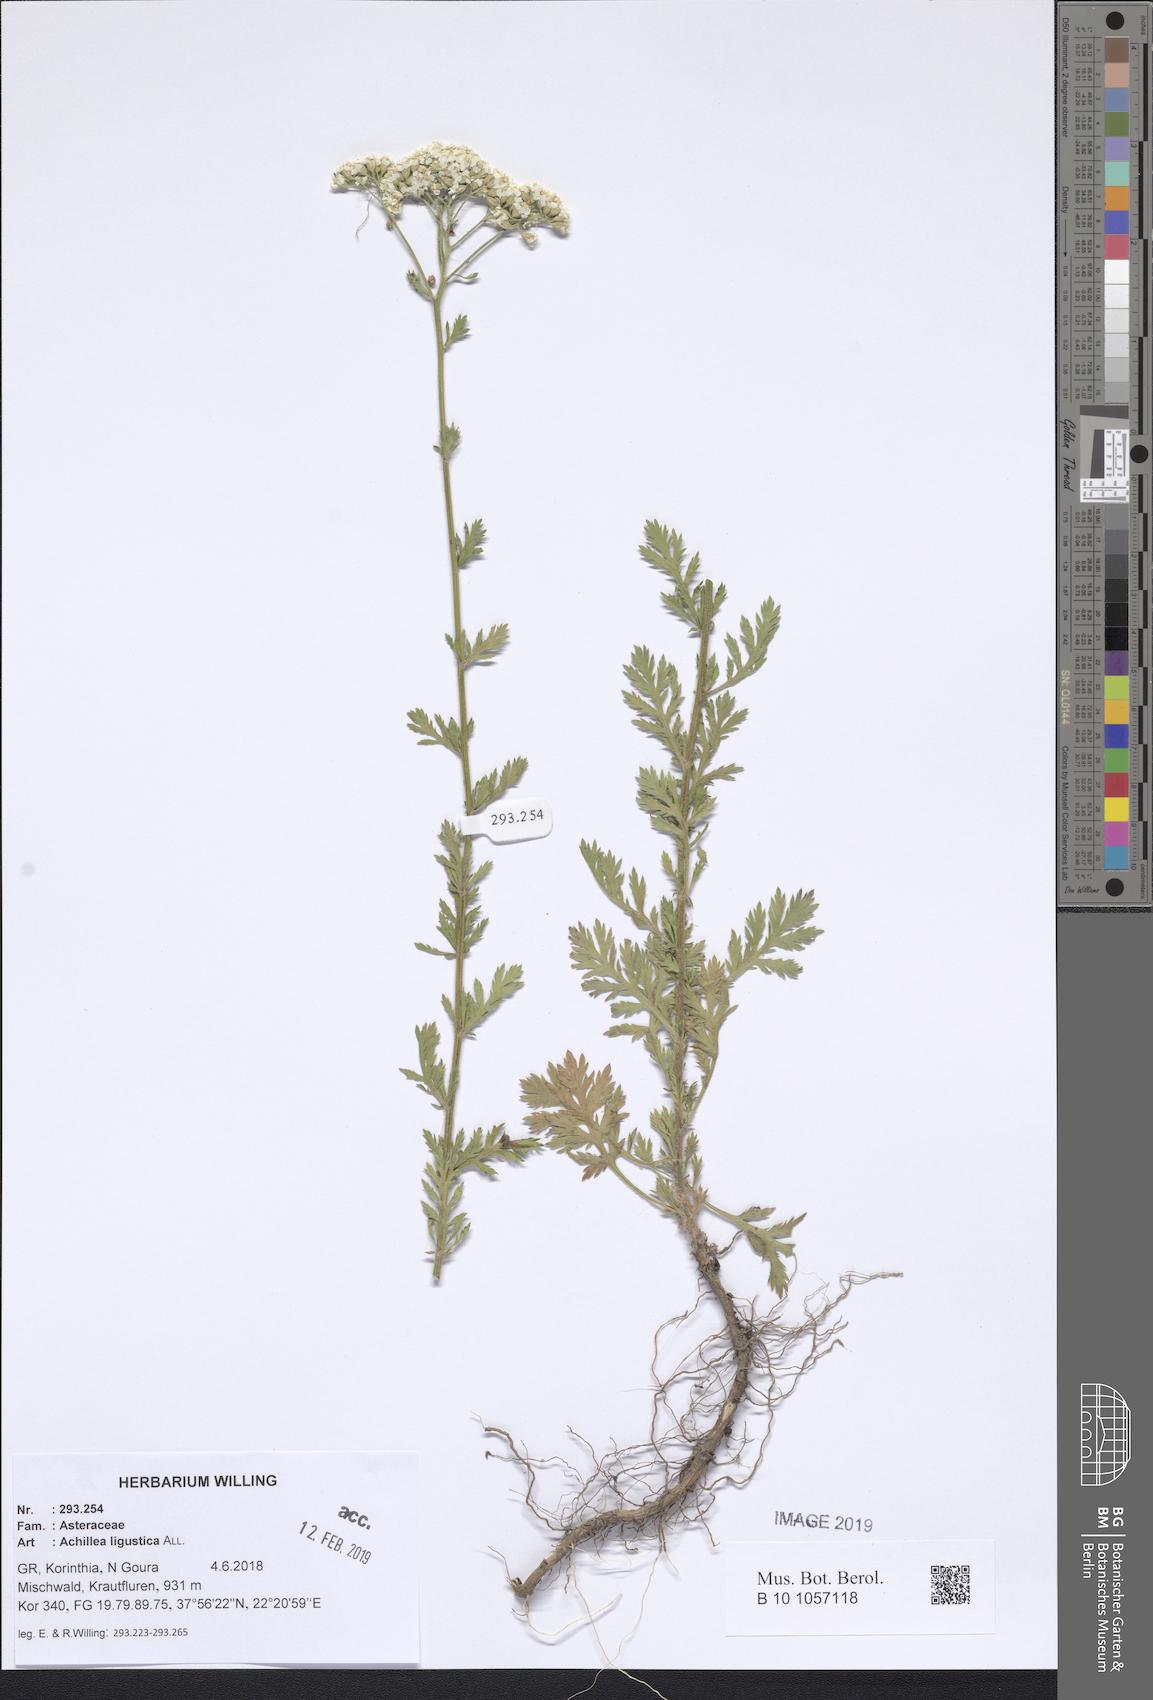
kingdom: Plantae
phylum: Tracheophyta
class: Magnoliopsida
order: Asterales
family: Asteraceae
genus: Achillea
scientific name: Achillea ligustica
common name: Southern yarrow
